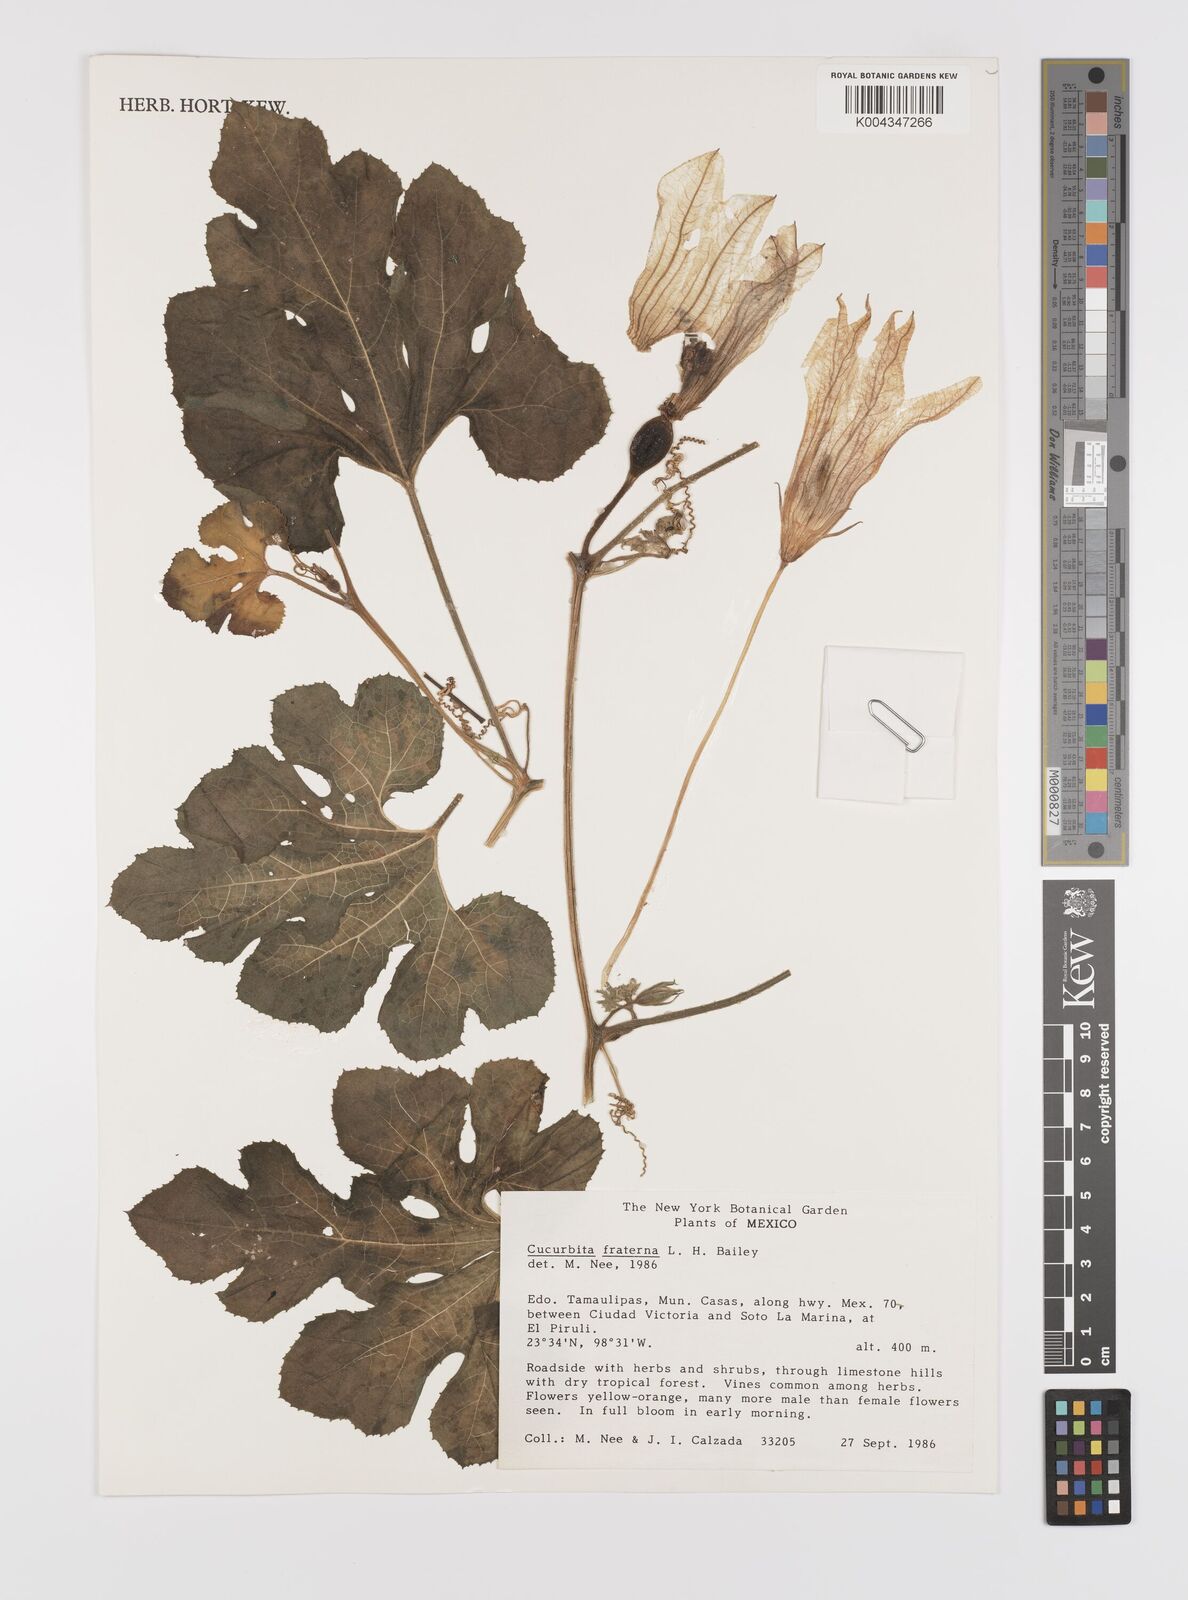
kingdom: Plantae
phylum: Tracheophyta
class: Magnoliopsida
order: Cucurbitales
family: Cucurbitaceae
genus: Cucurbita
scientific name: Cucurbita melopepo
